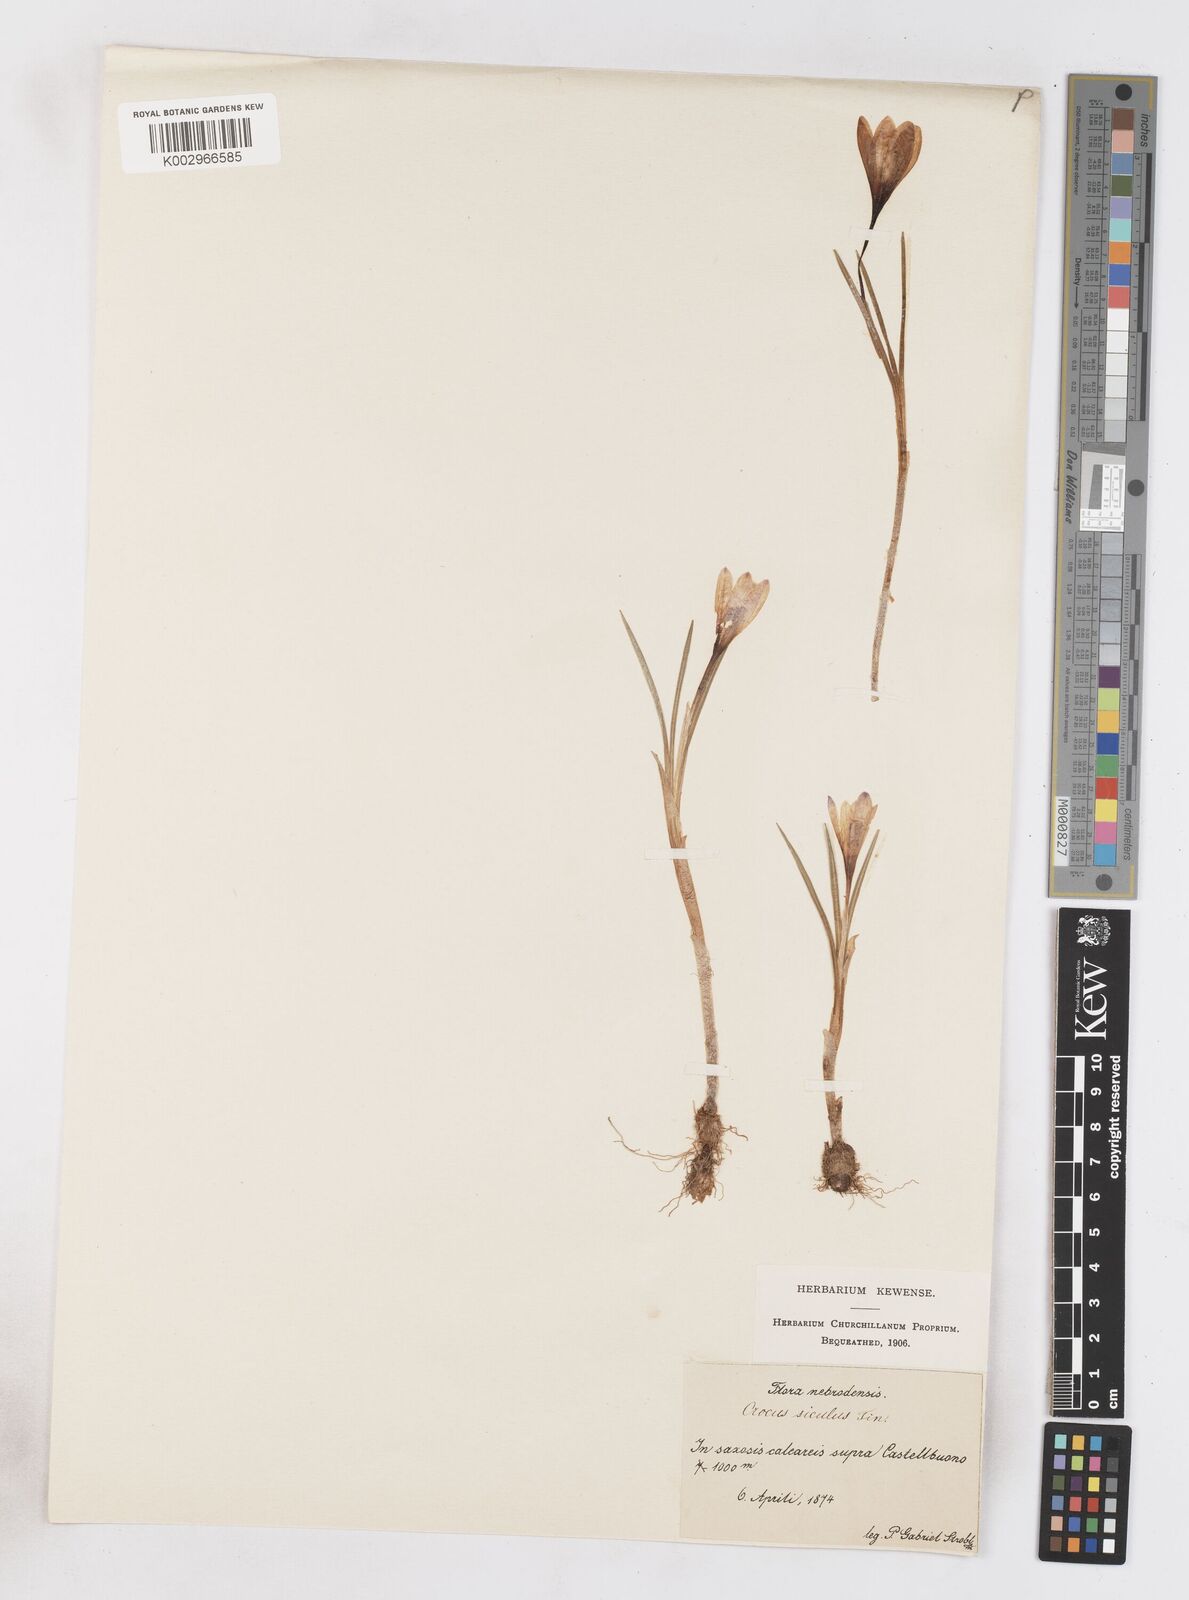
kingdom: Plantae
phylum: Tracheophyta
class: Liliopsida
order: Asparagales
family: Iridaceae
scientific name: Iridaceae
